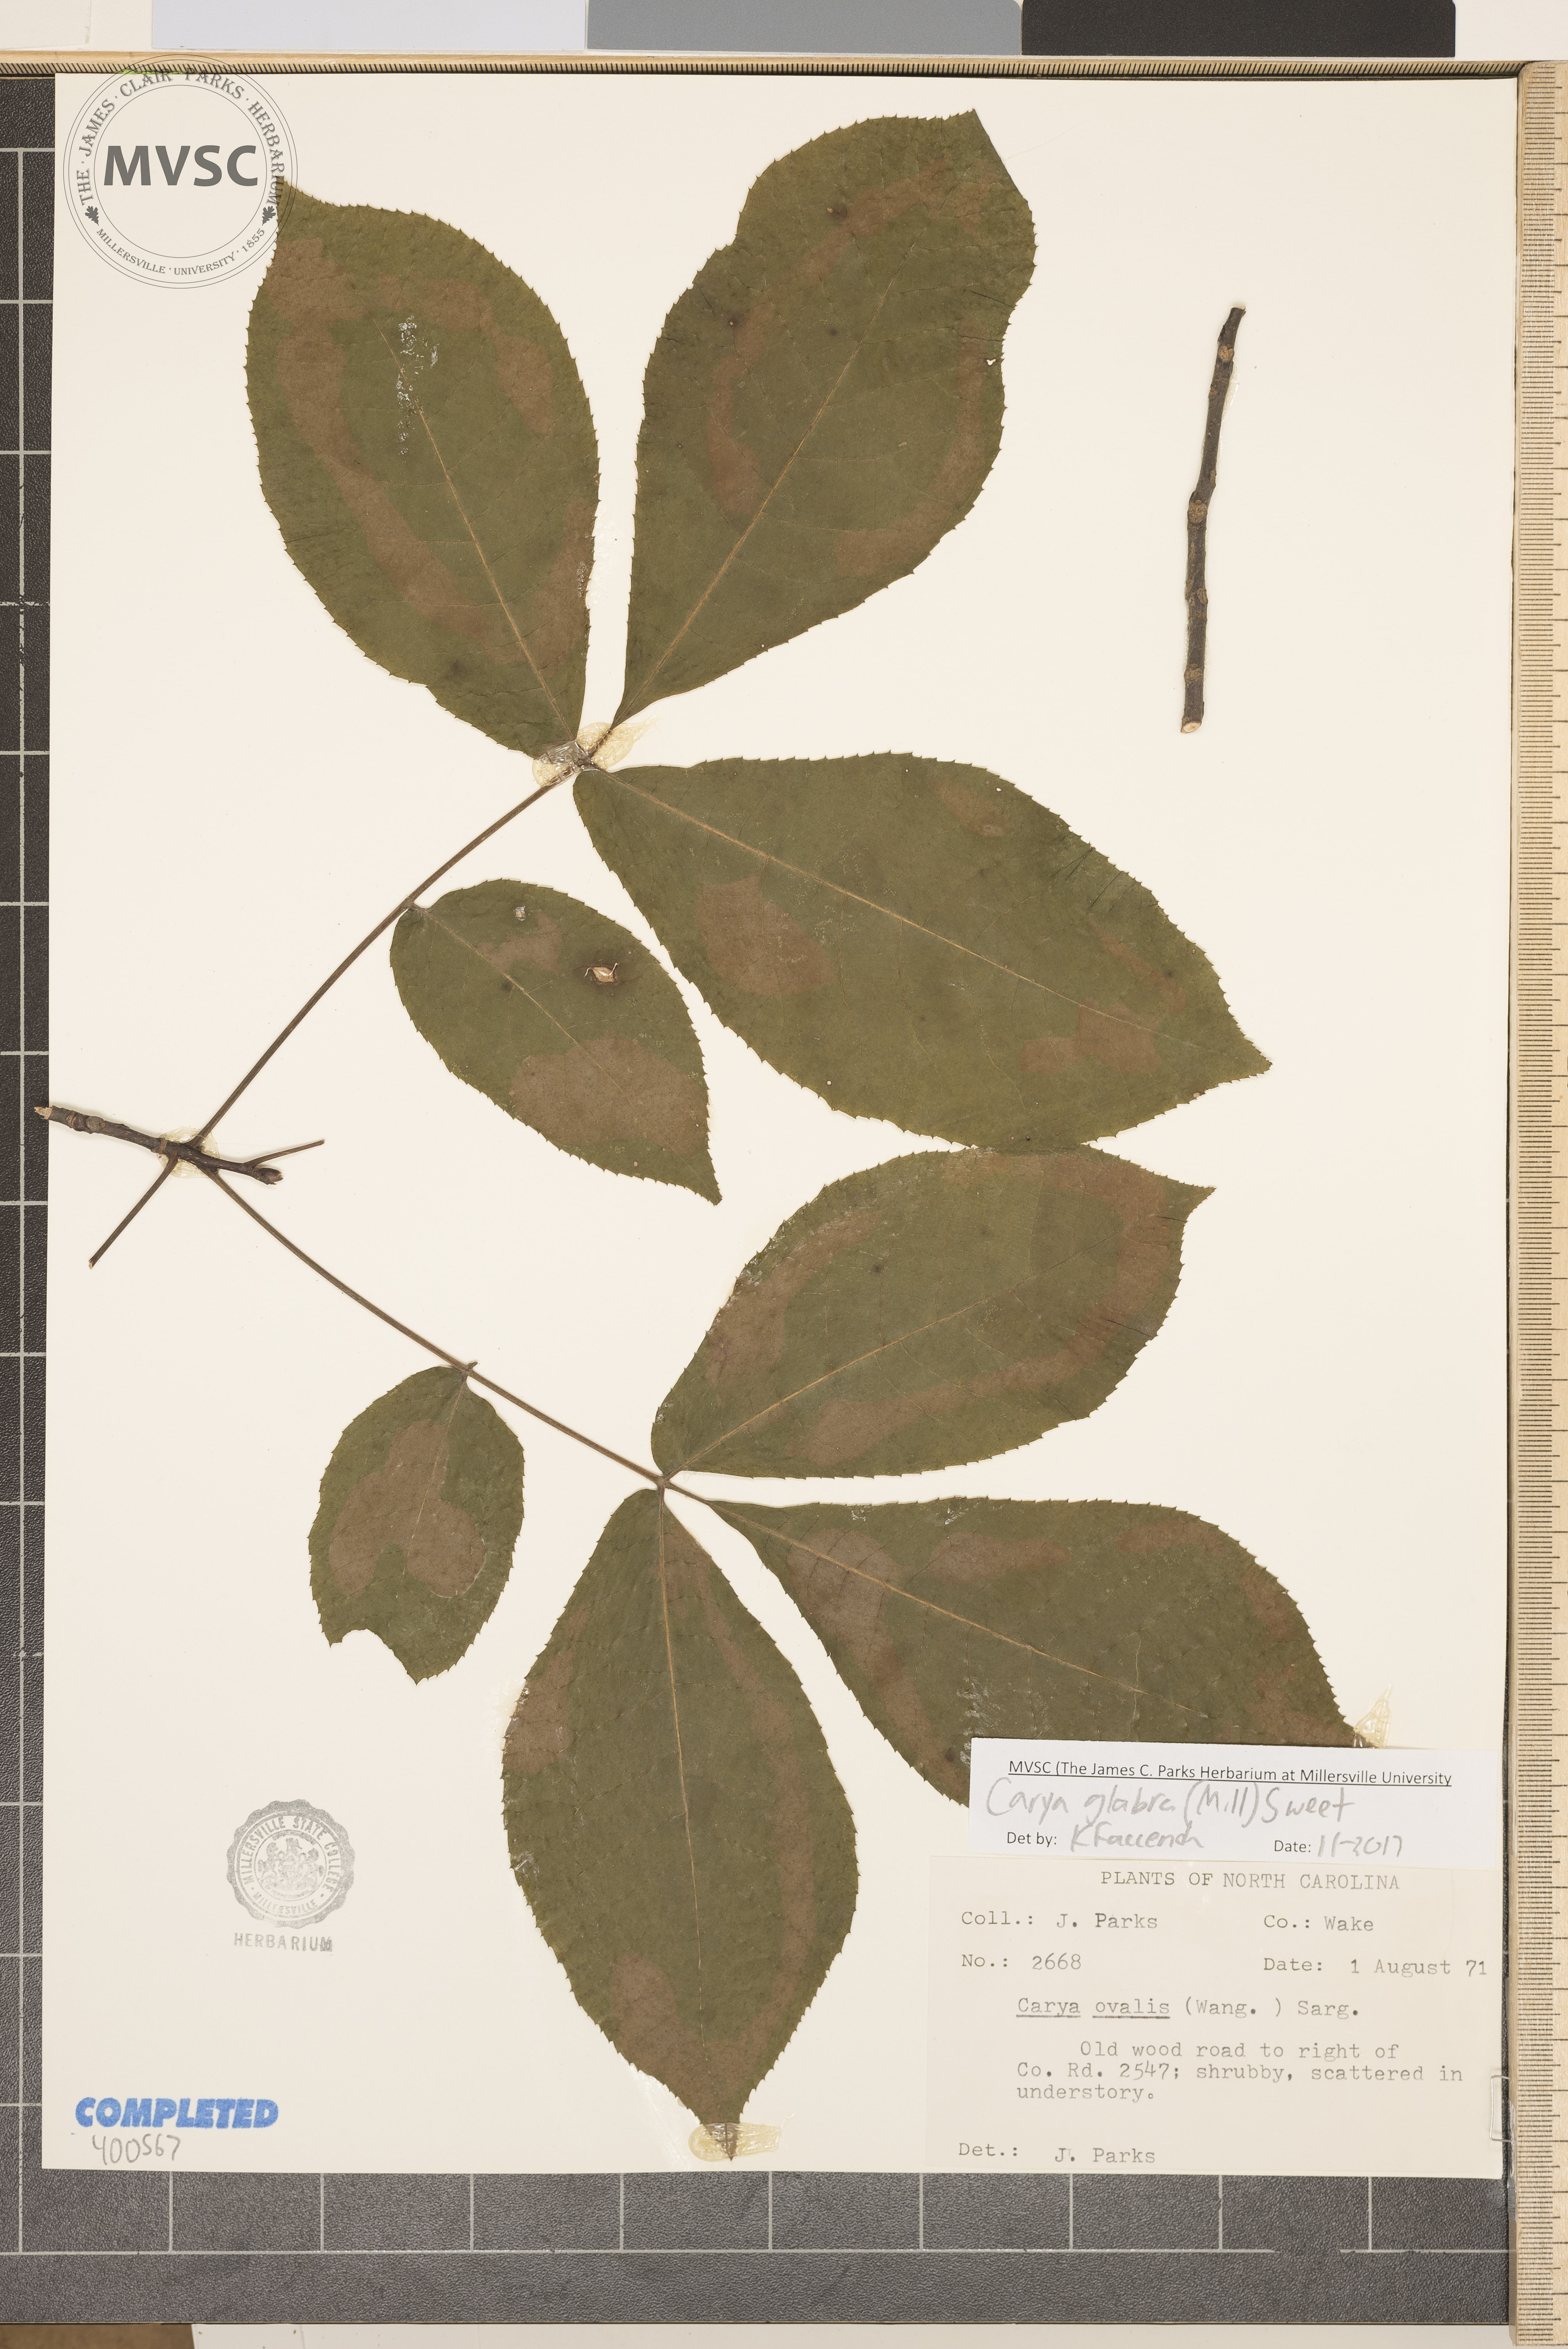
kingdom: Plantae
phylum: Tracheophyta
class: Magnoliopsida
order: Fagales
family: Juglandaceae
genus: Carya
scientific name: Carya glabra
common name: red hickory
